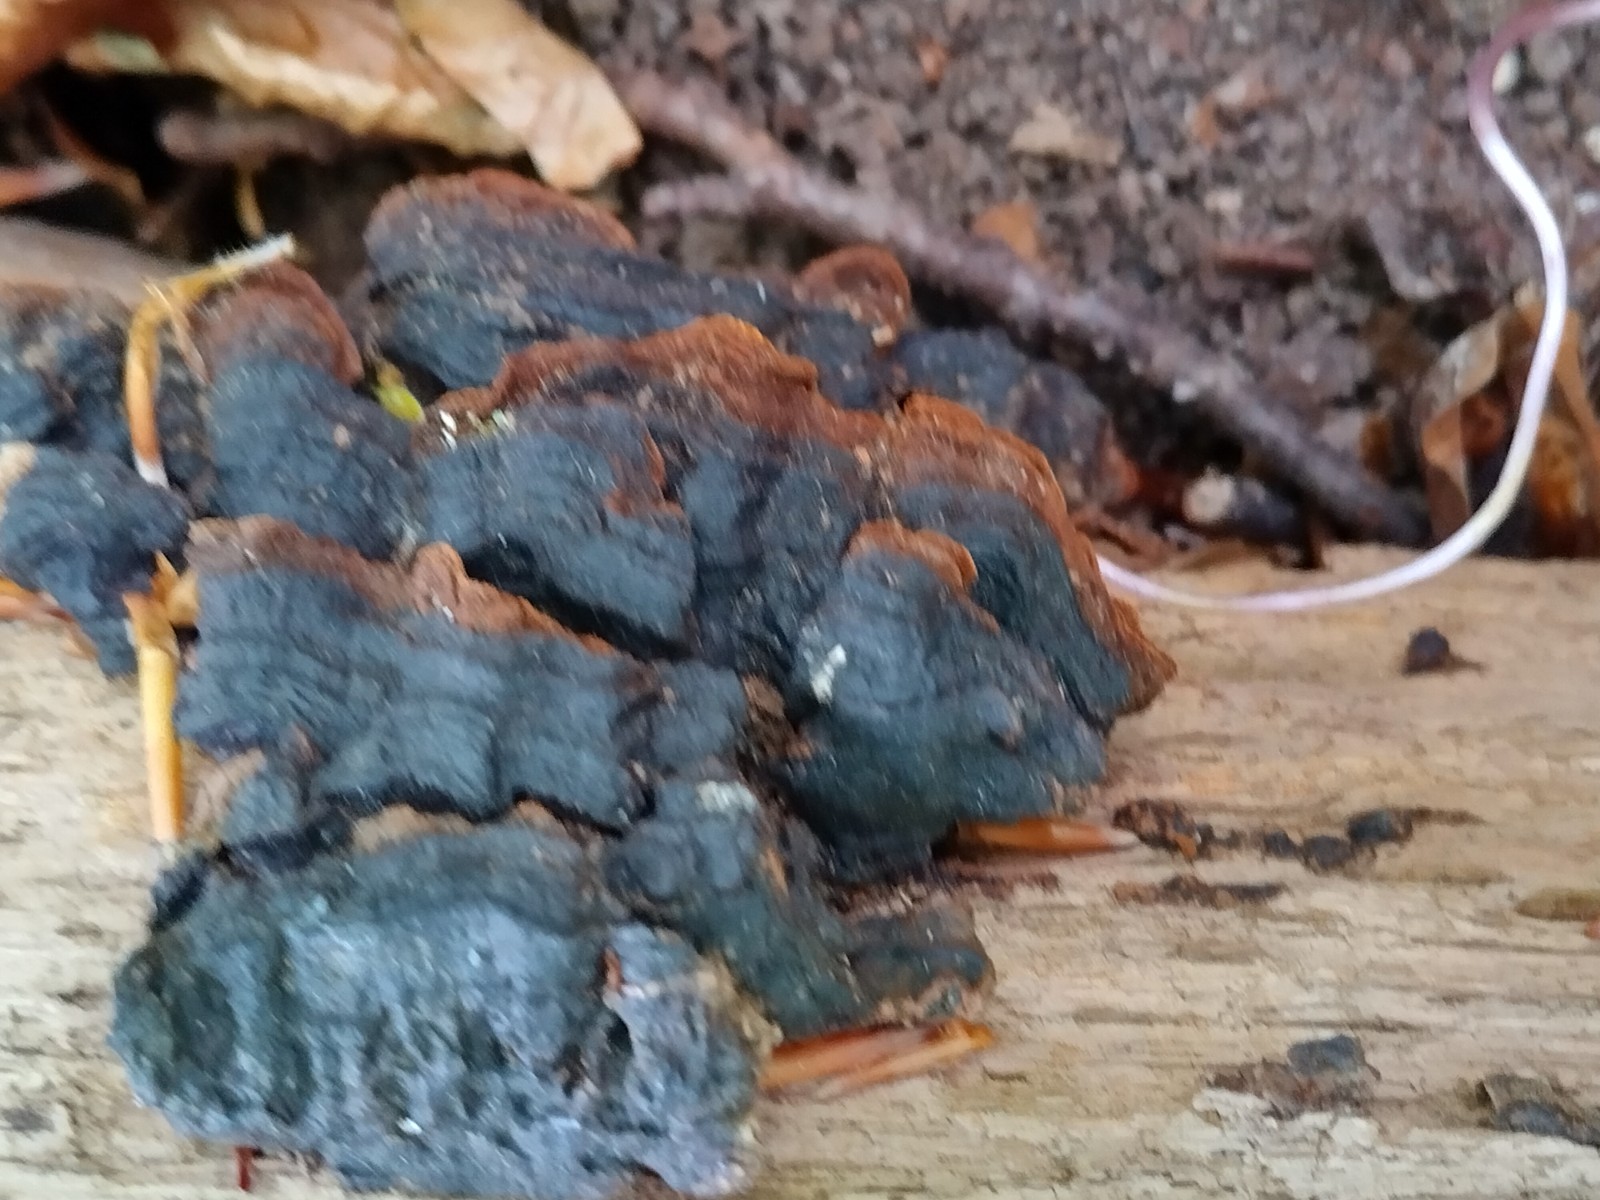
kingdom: Fungi
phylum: Basidiomycota
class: Agaricomycetes
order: Hymenochaetales
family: Hymenochaetaceae
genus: Hymenochaete
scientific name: Hymenochaete rubiginosa
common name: stiv ruslædersvamp
